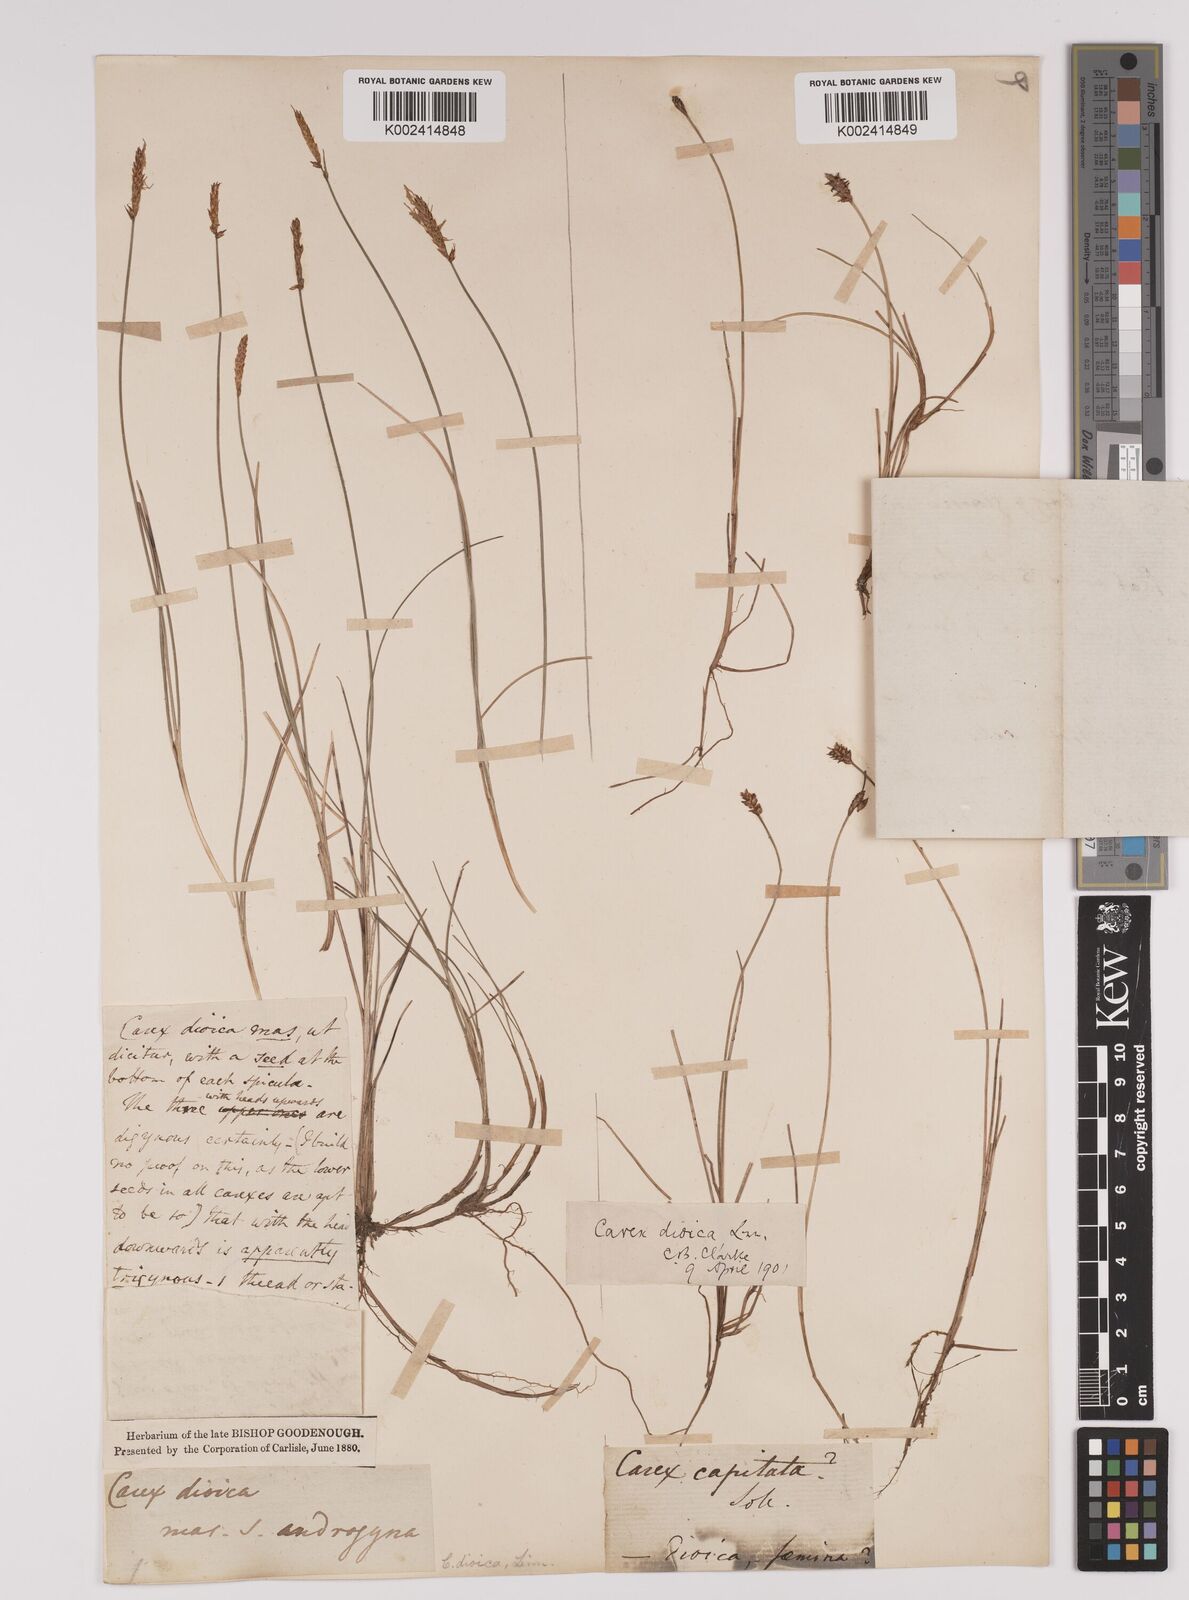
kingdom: Plantae
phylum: Tracheophyta
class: Liliopsida
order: Poales
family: Cyperaceae
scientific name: Cyperaceae
